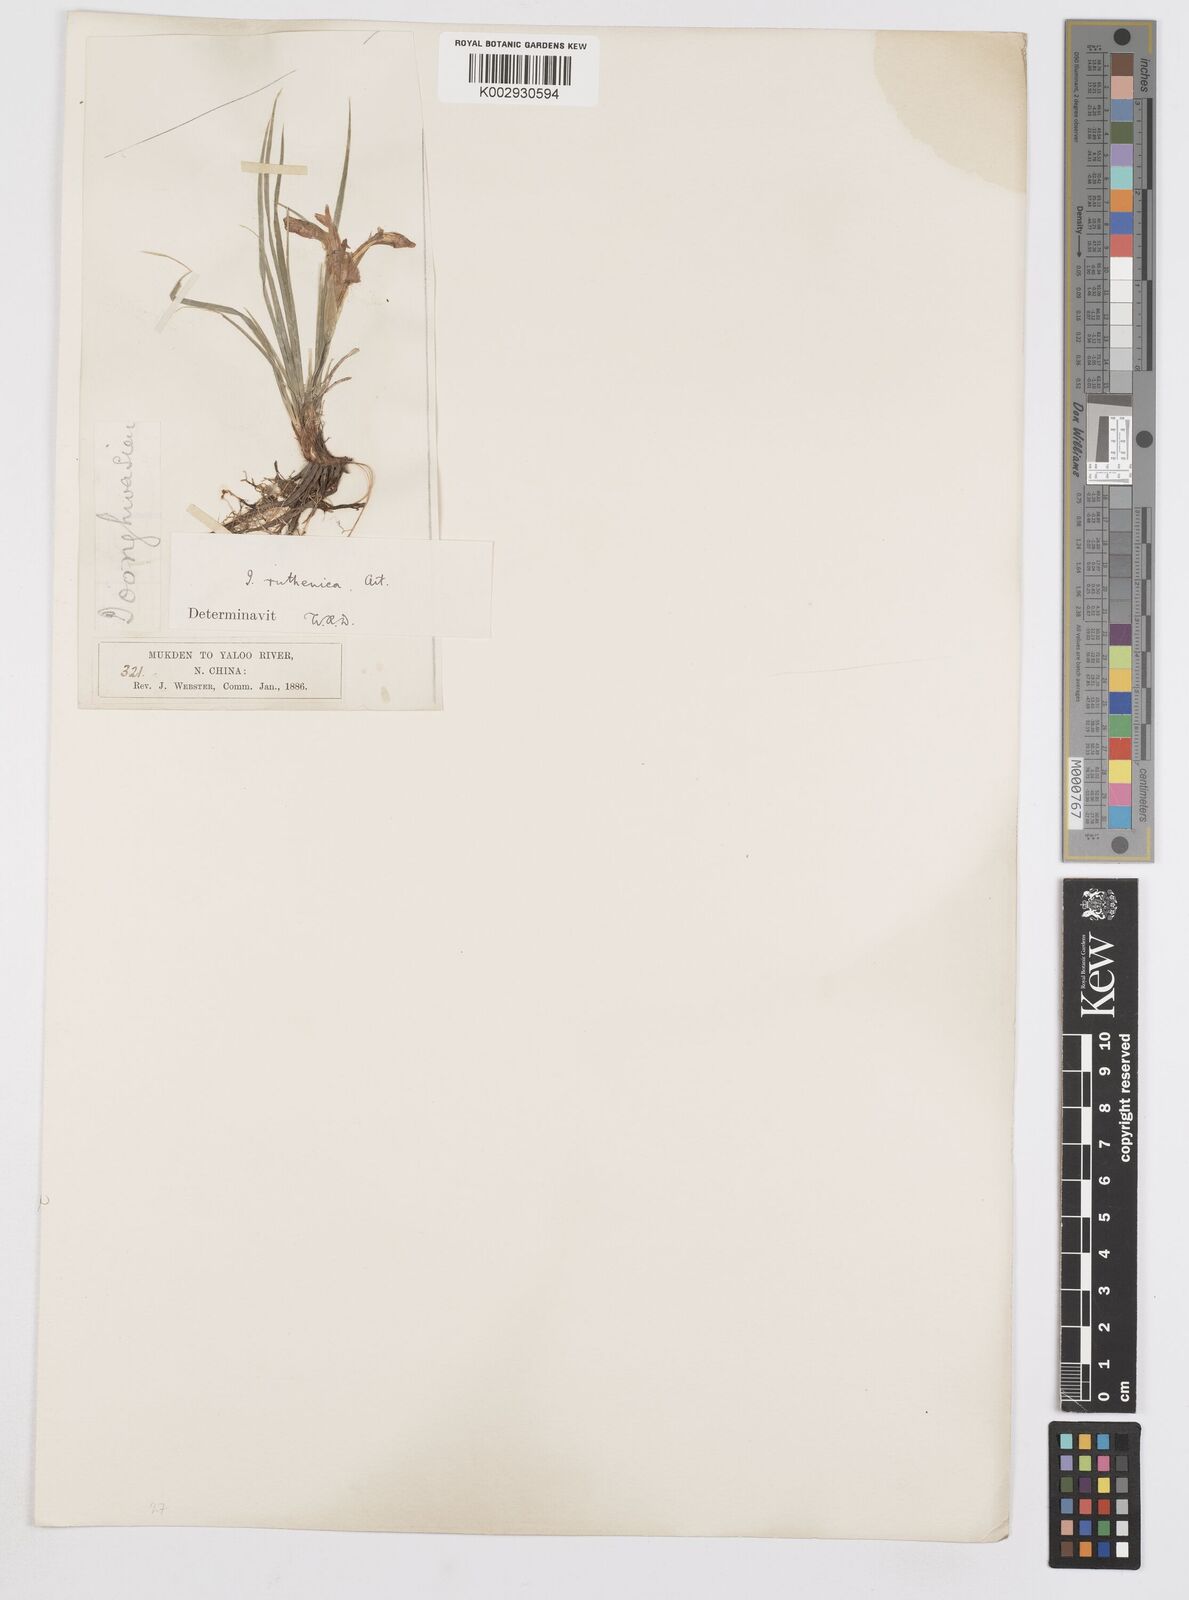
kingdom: Plantae
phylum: Tracheophyta
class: Liliopsida
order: Asparagales
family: Iridaceae
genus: Iris
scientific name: Iris
